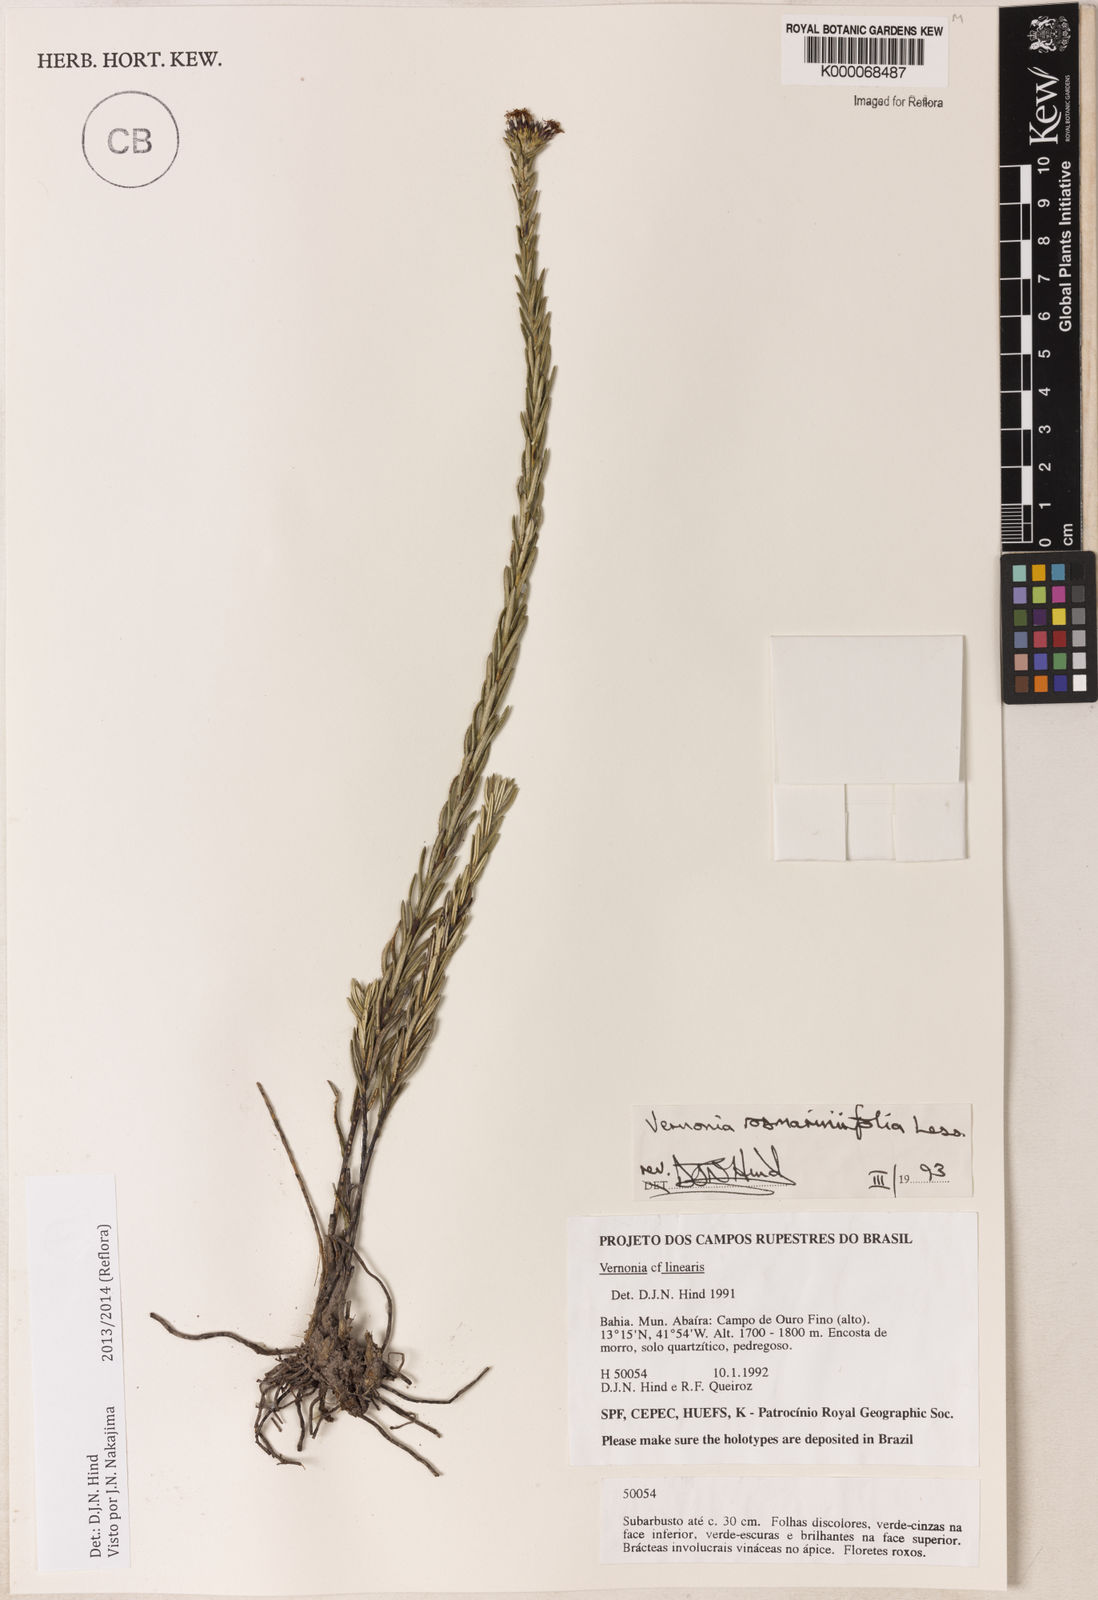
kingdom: Plantae
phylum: Tracheophyta
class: Magnoliopsida
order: Asterales
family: Asteraceae
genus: Lessingianthus
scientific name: Lessingianthus rosmarinifolius
